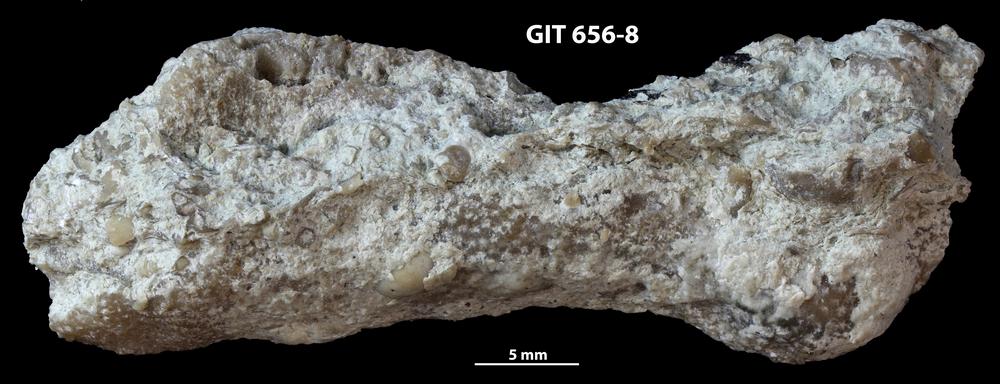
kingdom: Animalia
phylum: Cnidaria
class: Anthozoa
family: Theciidae
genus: Thecia
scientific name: Thecia
